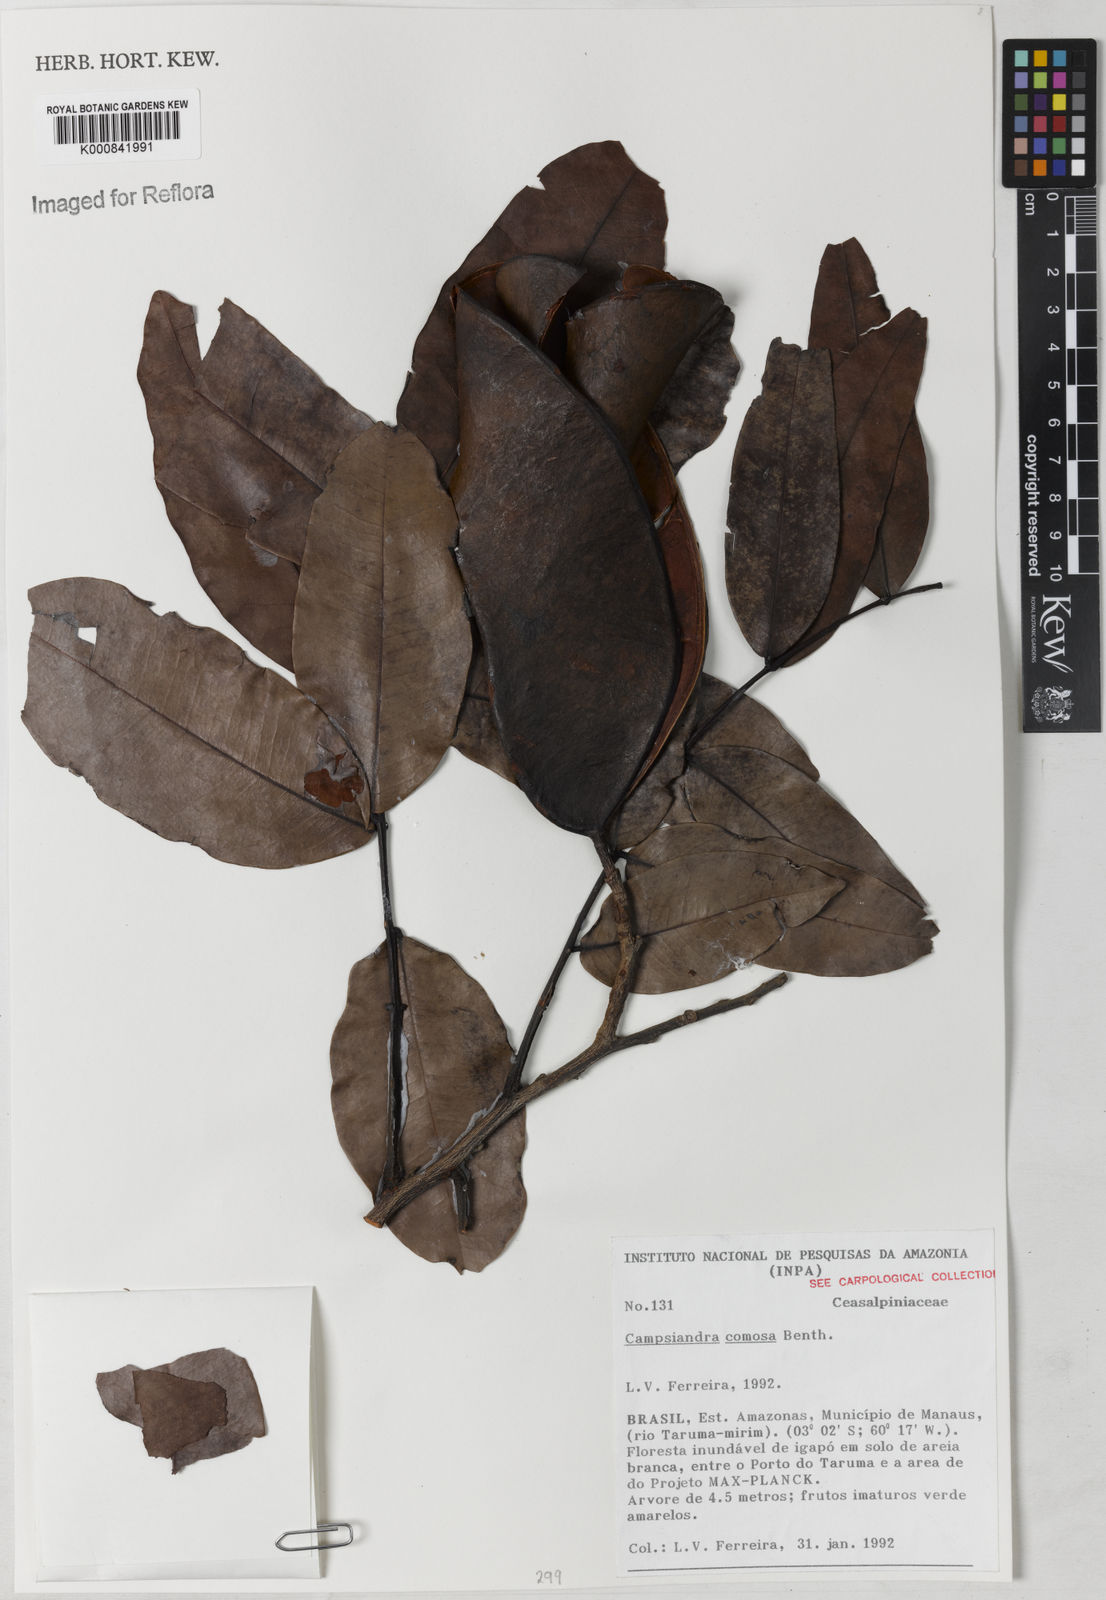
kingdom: Plantae
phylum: Tracheophyta
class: Magnoliopsida
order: Fabales
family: Fabaceae
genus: Campsiandra
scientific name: Campsiandra comosa
